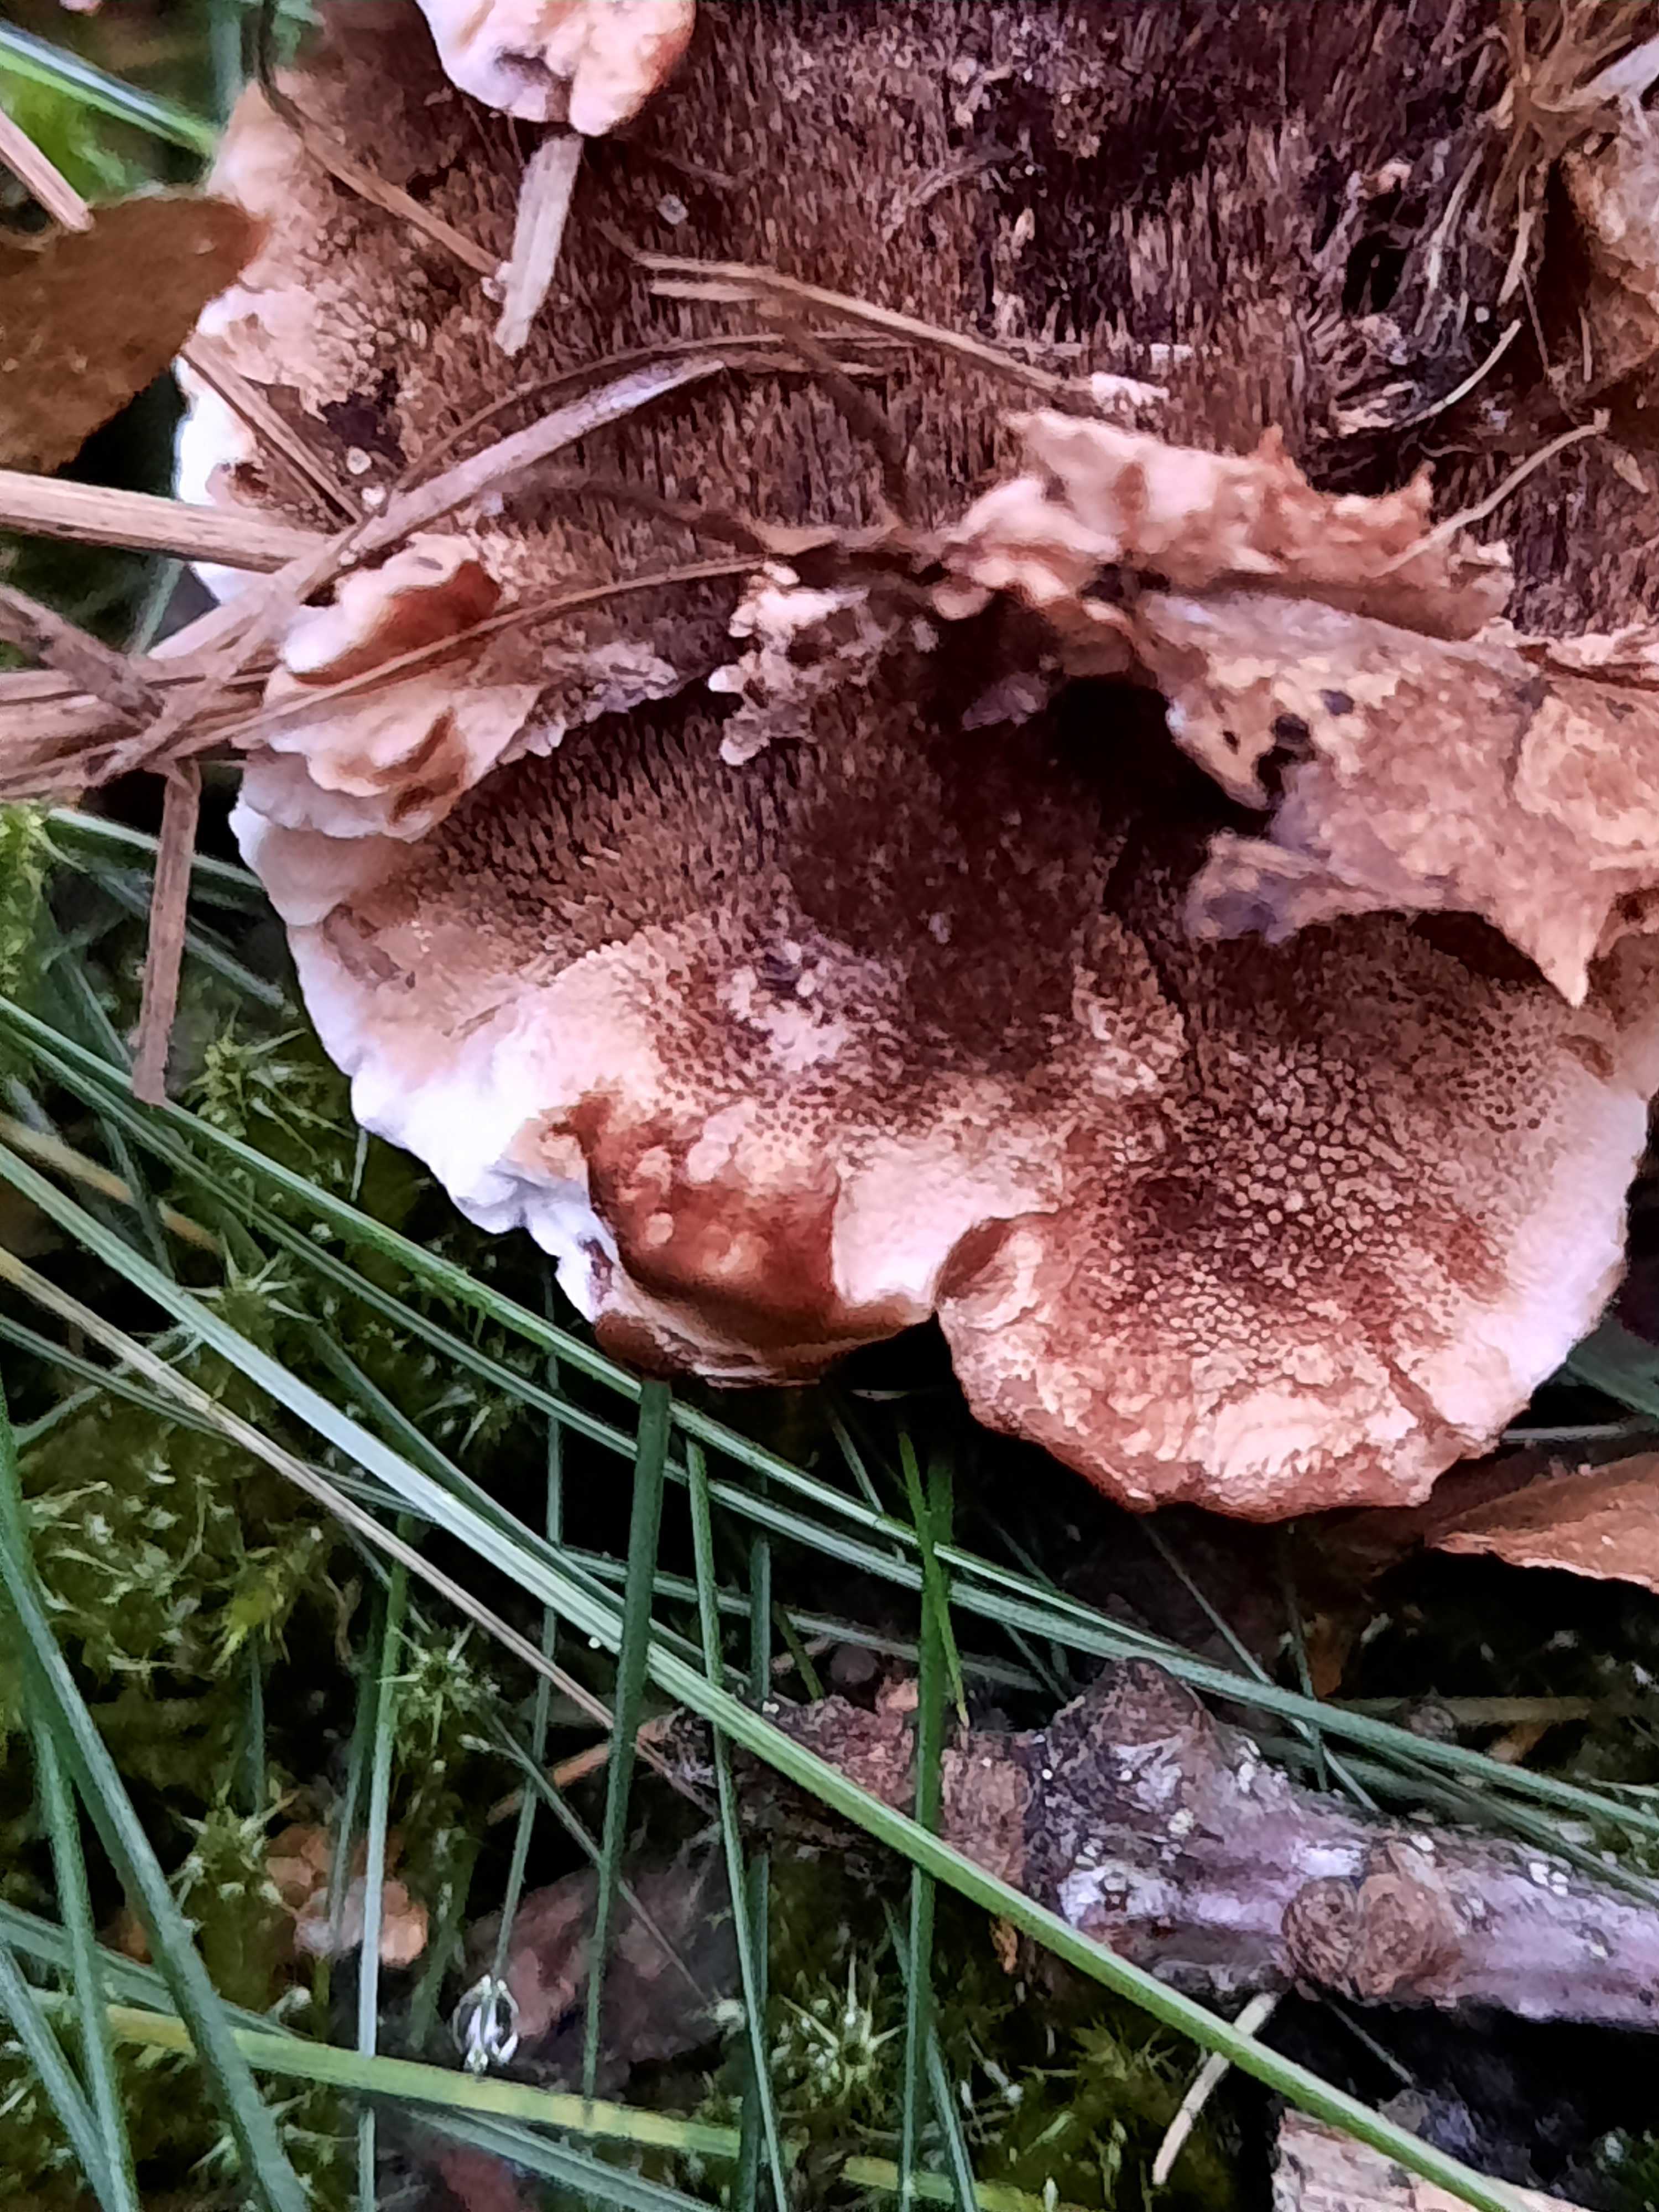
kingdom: Fungi
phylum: Basidiomycota
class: Agaricomycetes
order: Thelephorales
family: Bankeraceae
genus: Hydnellum
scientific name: Hydnellum concrescens
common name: bæltet korkpigsvamp
